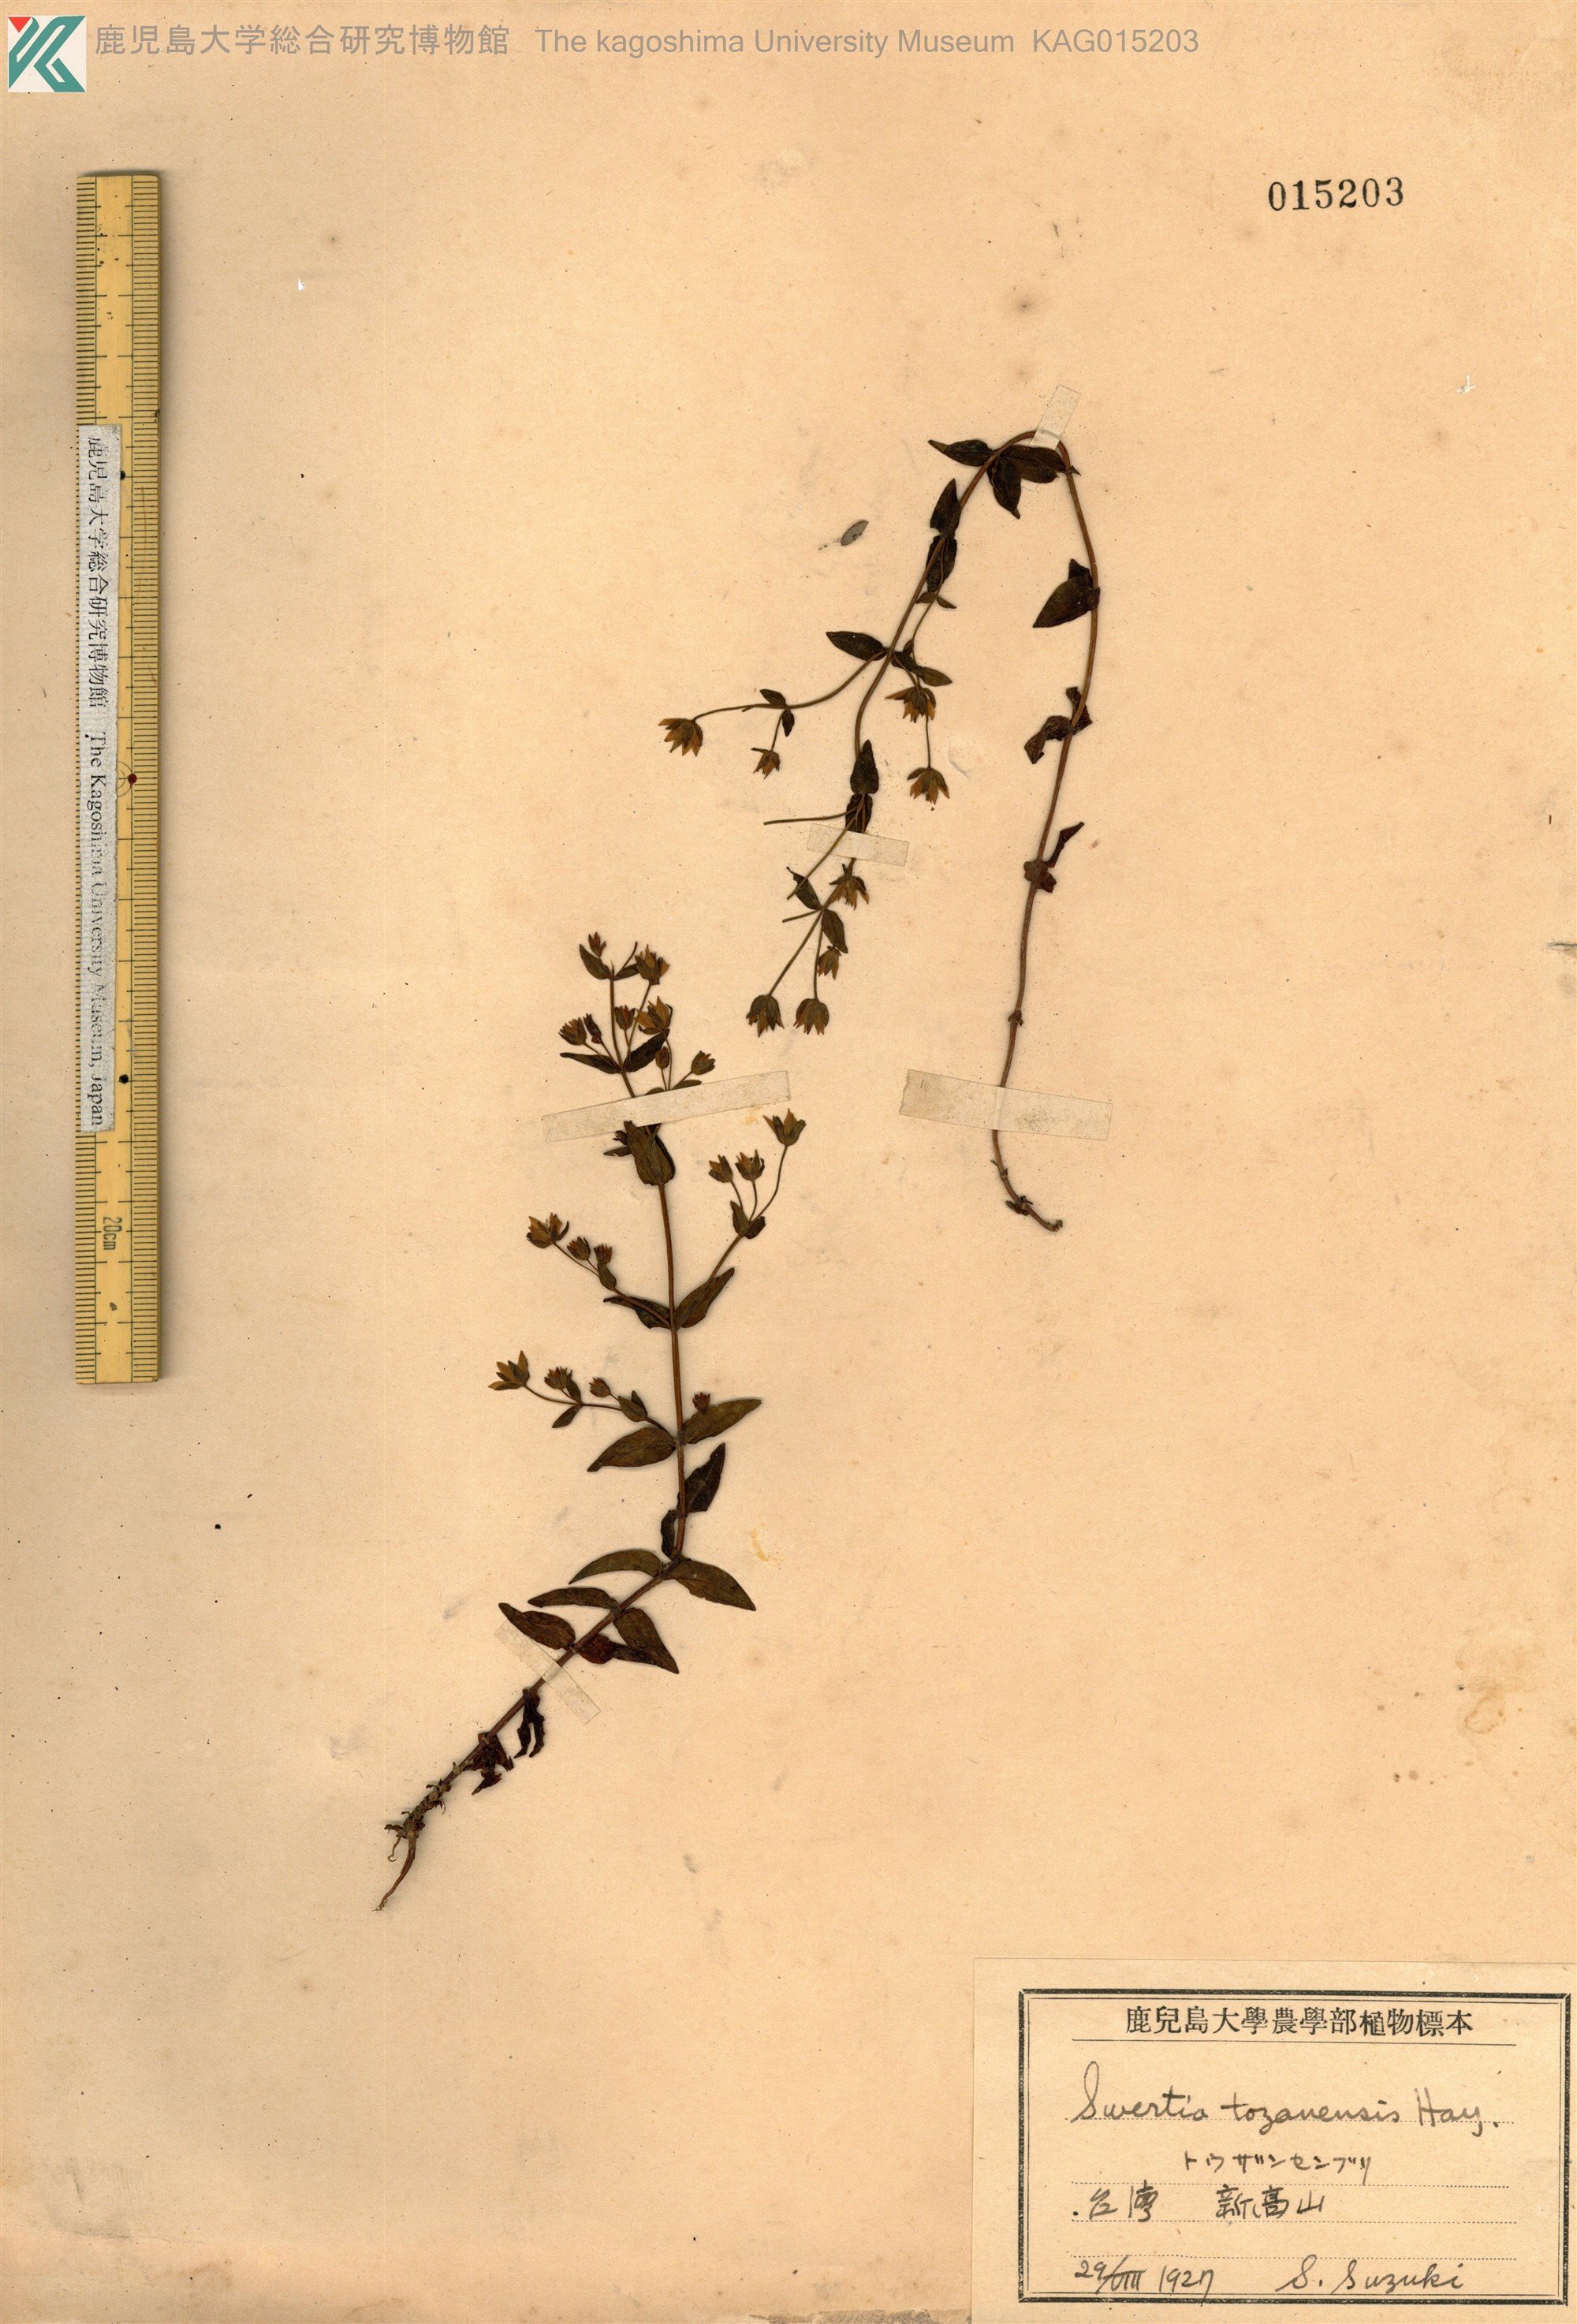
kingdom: Plantae
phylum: Tracheophyta
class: Magnoliopsida
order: Gentianales
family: Gentianaceae
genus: Swertia
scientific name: Swertia tozanensis
